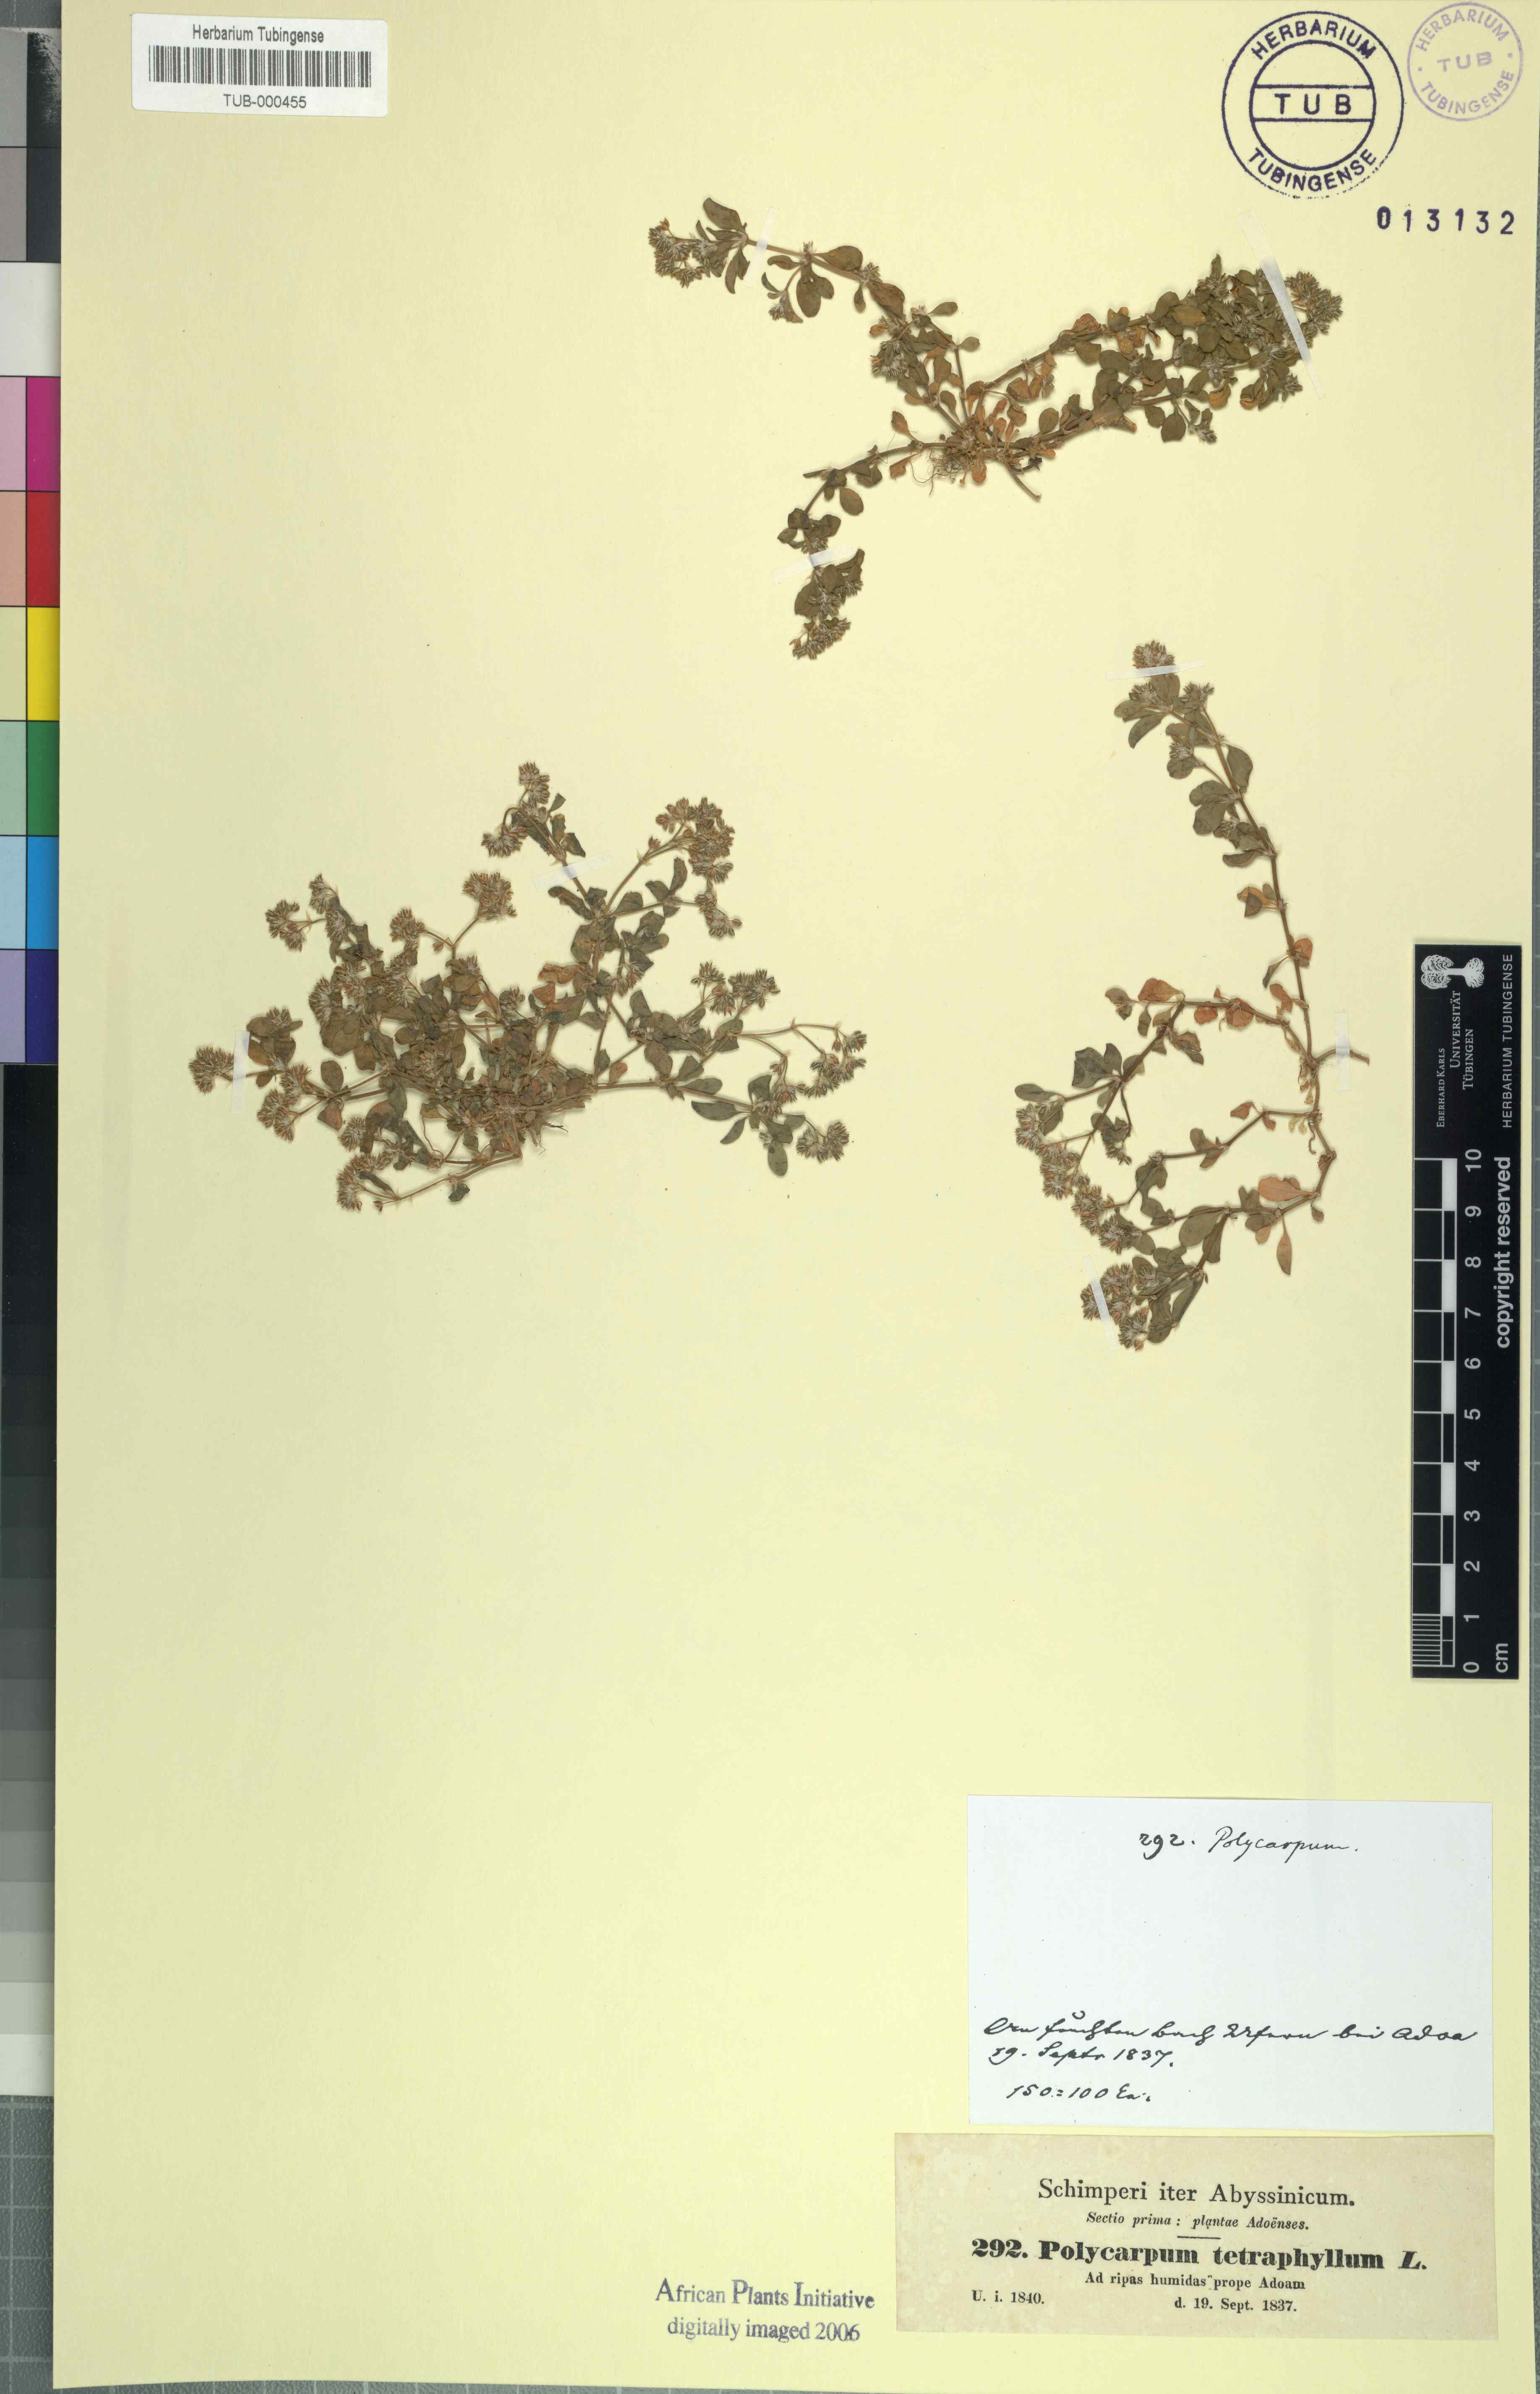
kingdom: Plantae
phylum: Tracheophyta
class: Magnoliopsida
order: Caryophyllales
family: Caryophyllaceae
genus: Polycarpon
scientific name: Polycarpon tetraphyllum
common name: Four-leaved all-seed
